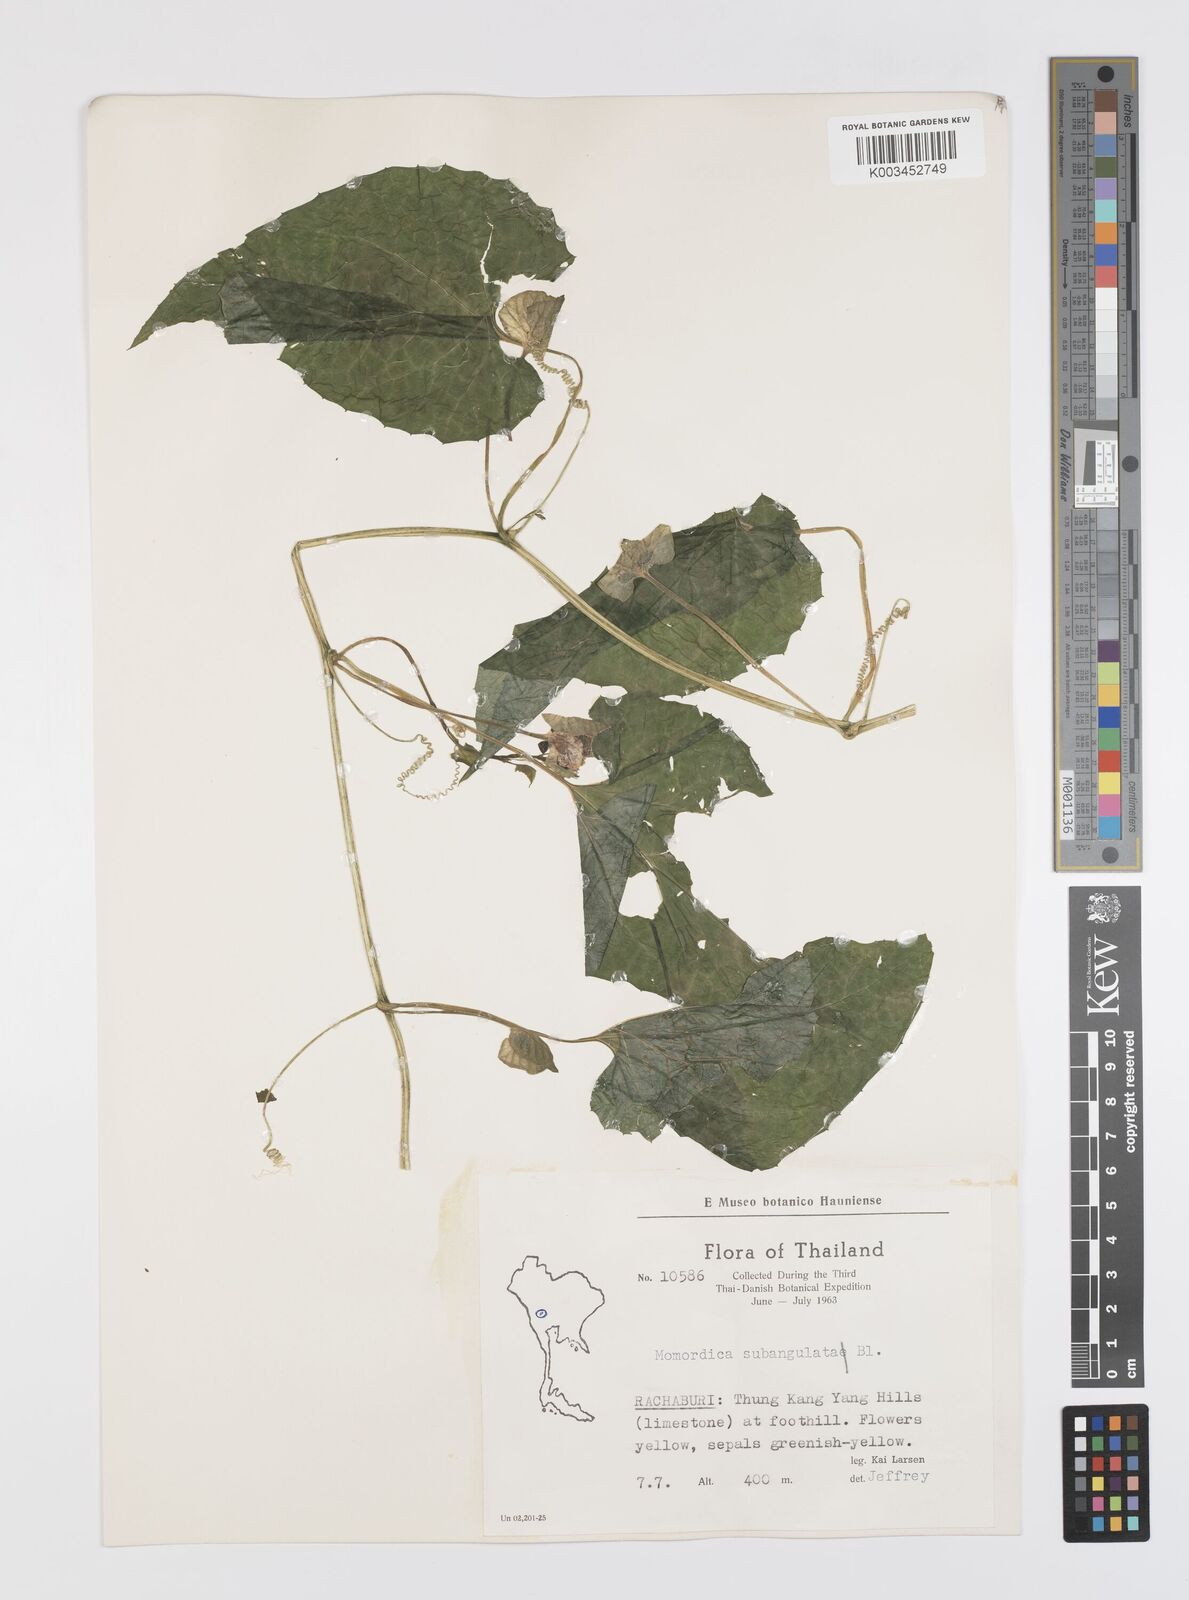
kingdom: Plantae
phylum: Tracheophyta
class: Magnoliopsida
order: Cucurbitales
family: Cucurbitaceae
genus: Momordica
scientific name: Momordica subangulata
